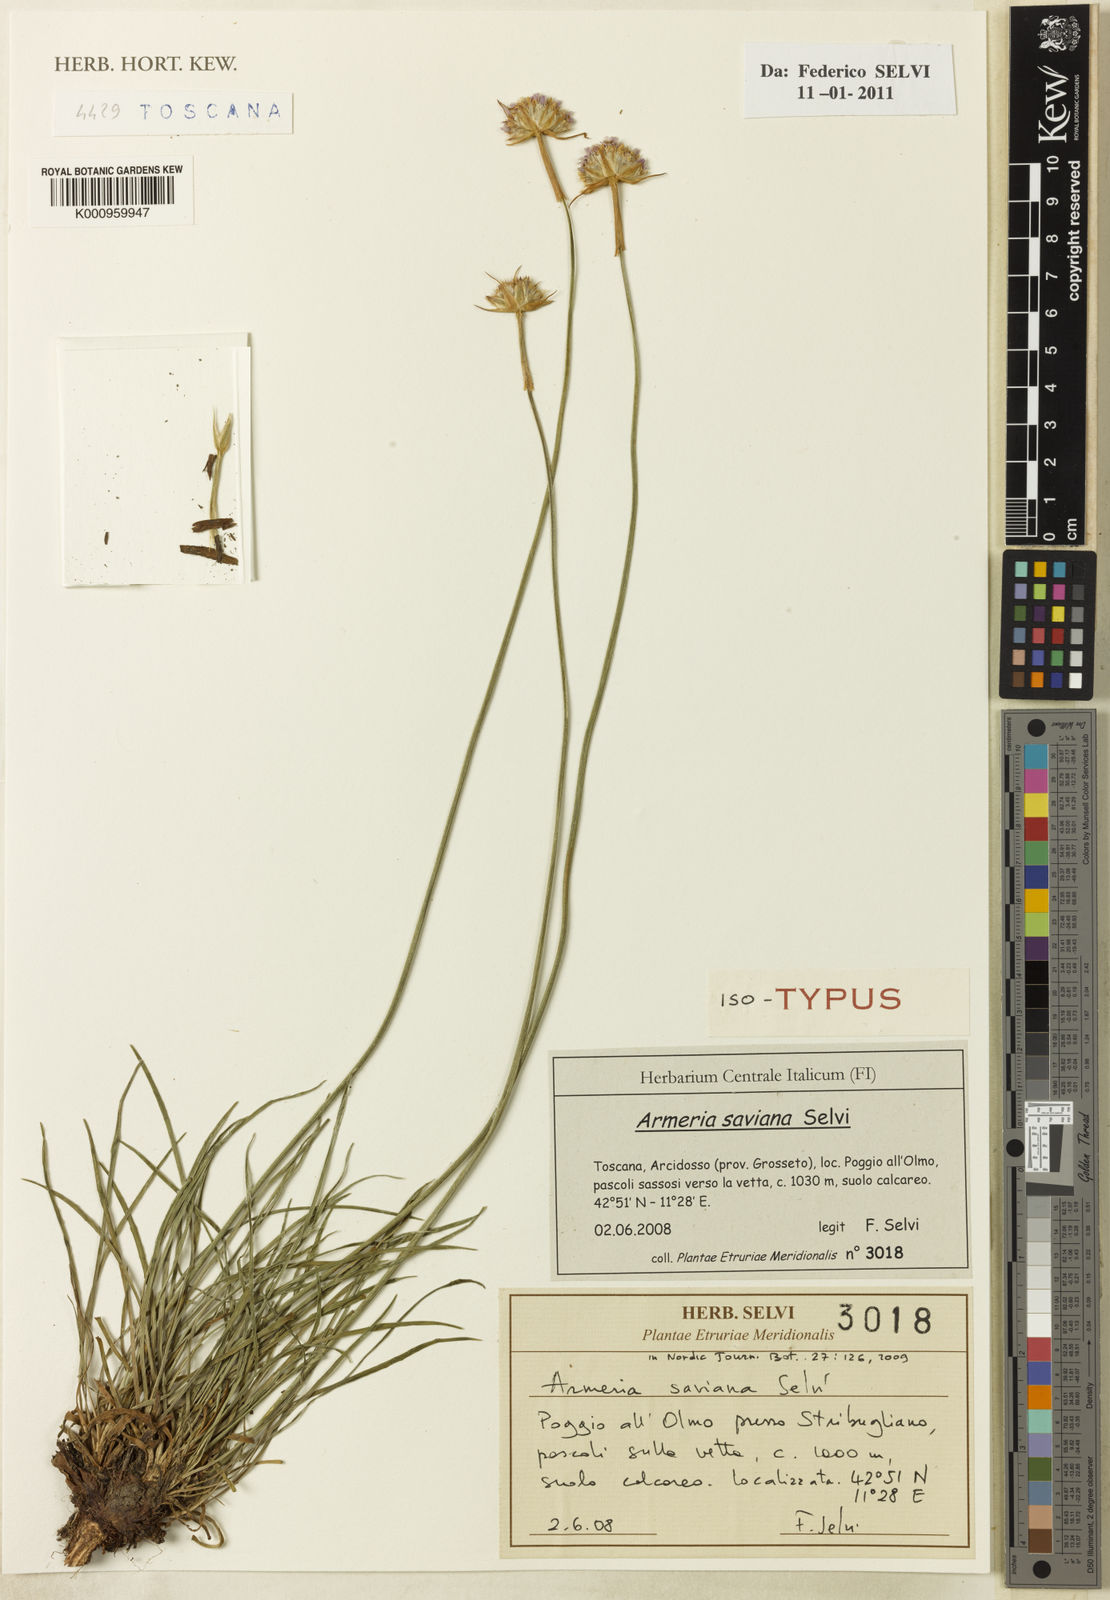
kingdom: Plantae
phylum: Tracheophyta
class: Magnoliopsida
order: Caryophyllales
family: Plumbaginaceae
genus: Armeria
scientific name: Armeria saviana
